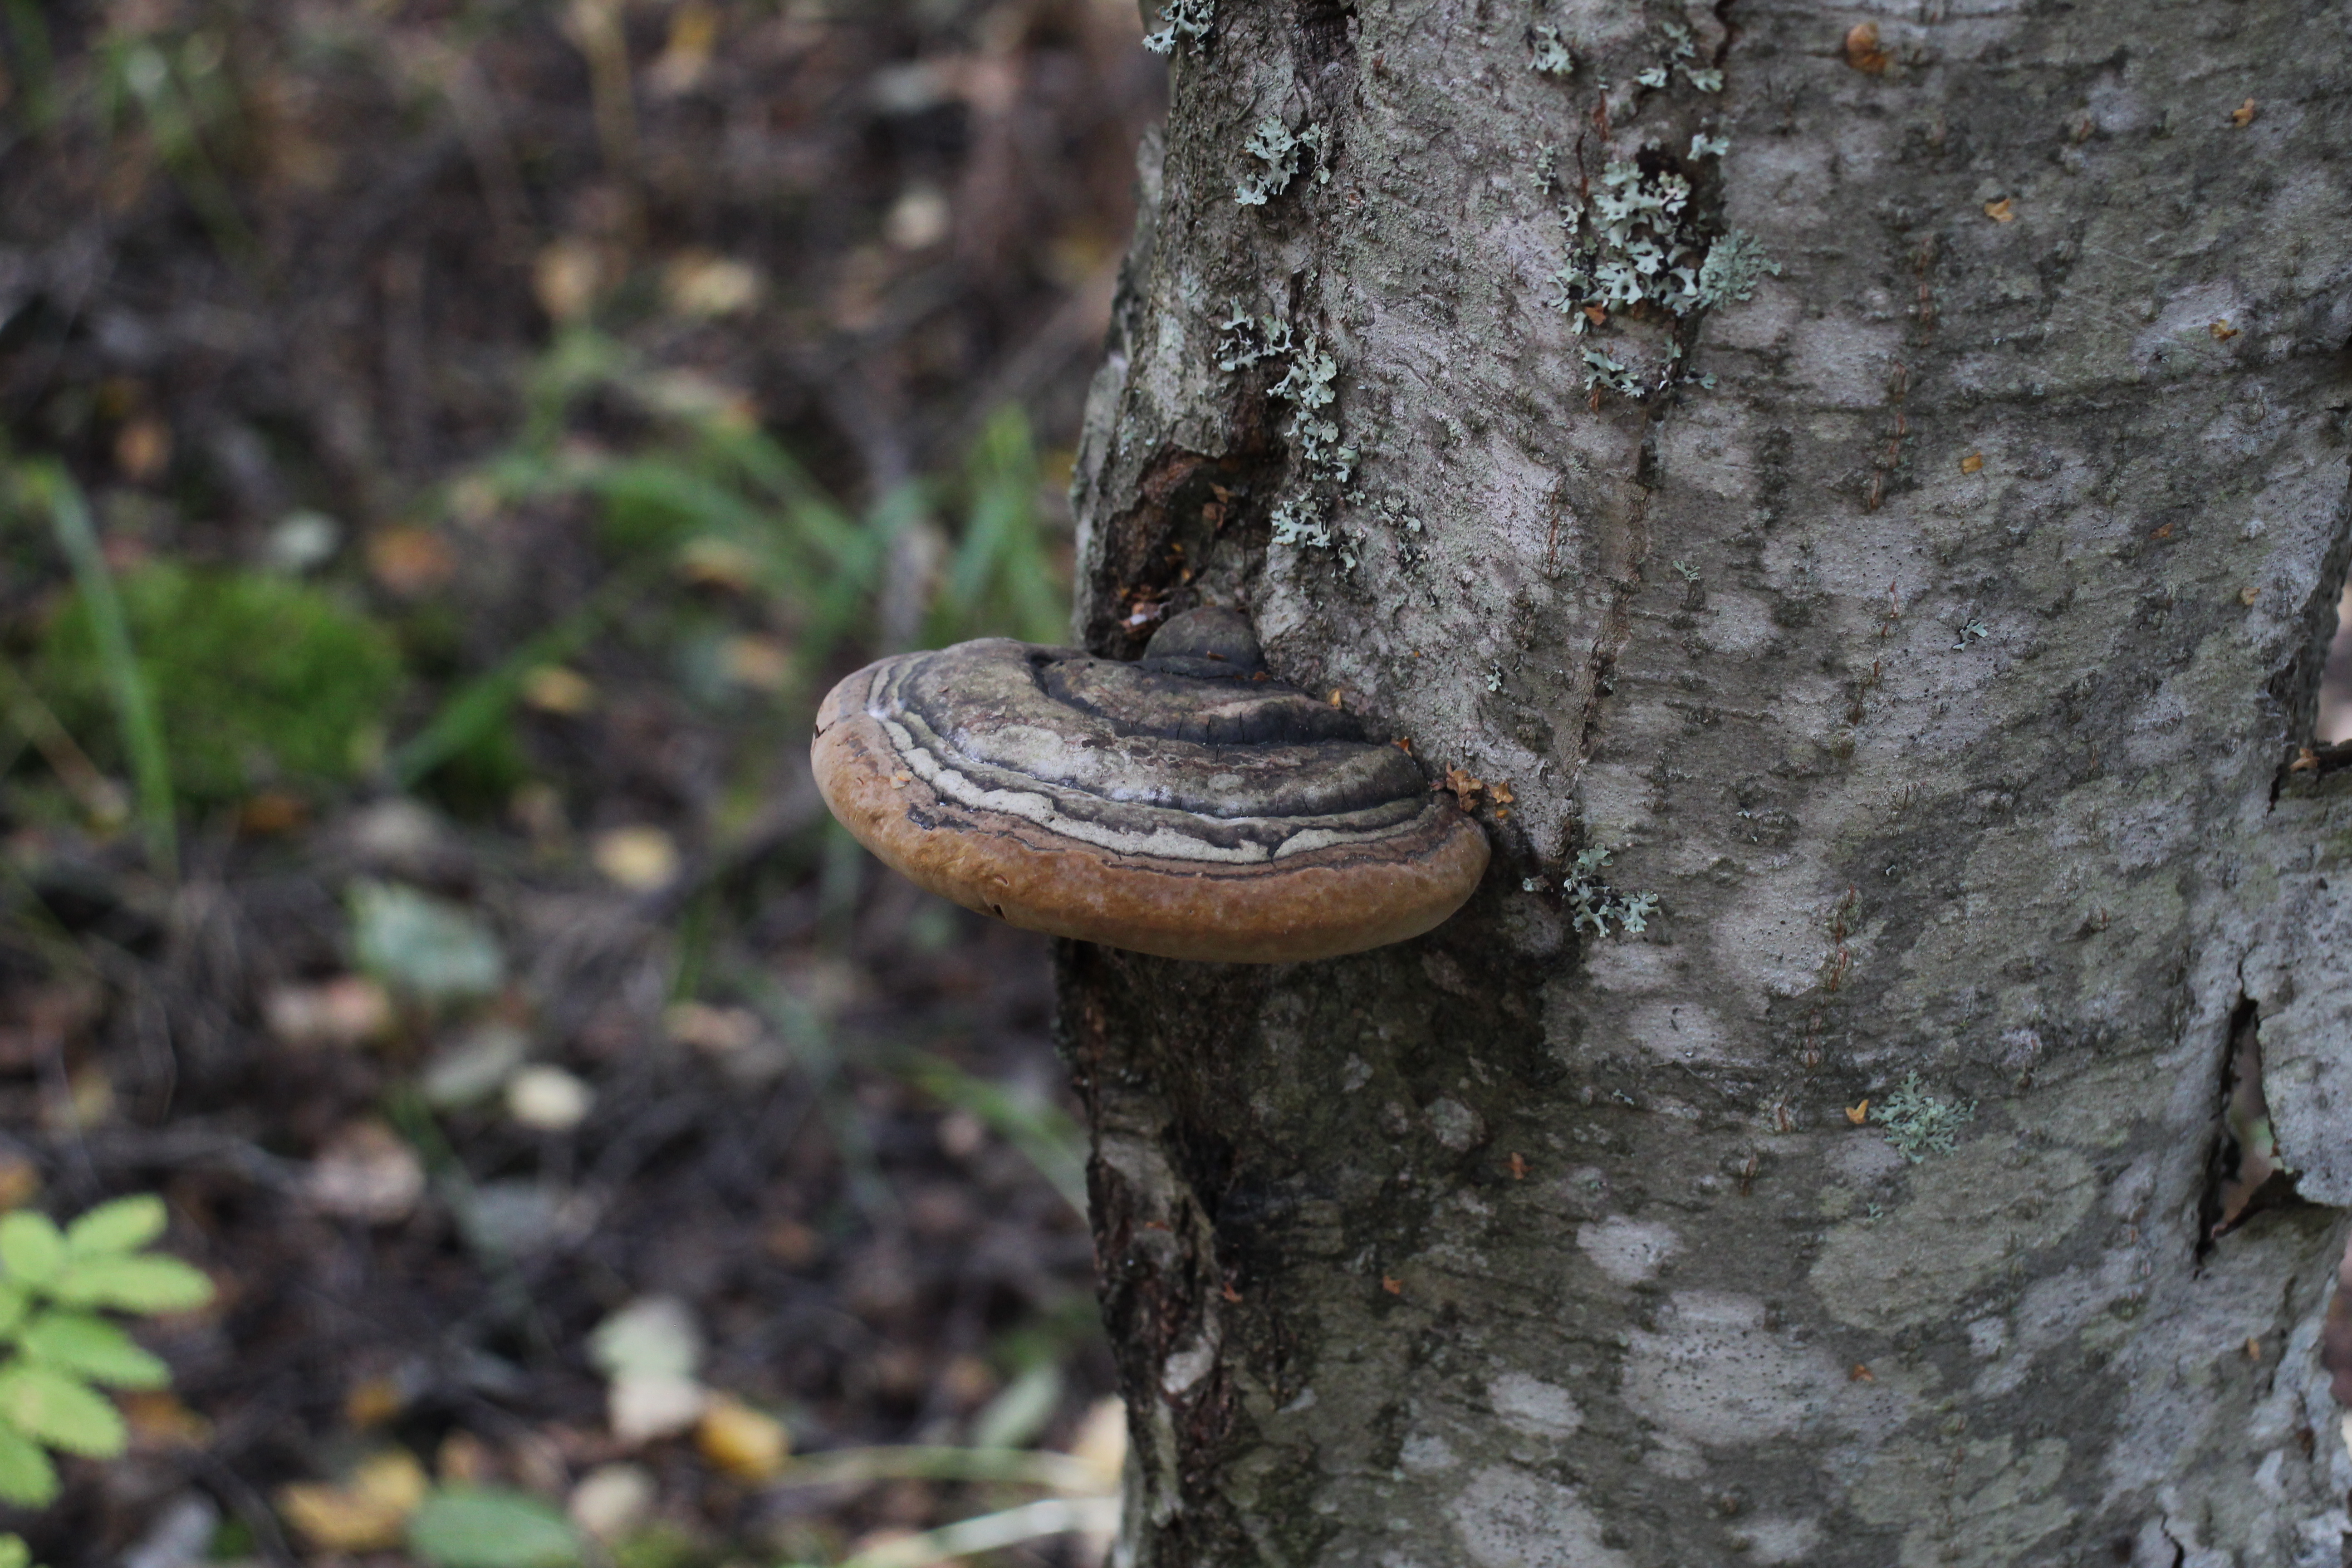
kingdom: Fungi
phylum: Basidiomycota
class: Agaricomycetes
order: Hymenochaetales
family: Hymenochaetaceae
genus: Phellinus
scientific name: Phellinus
